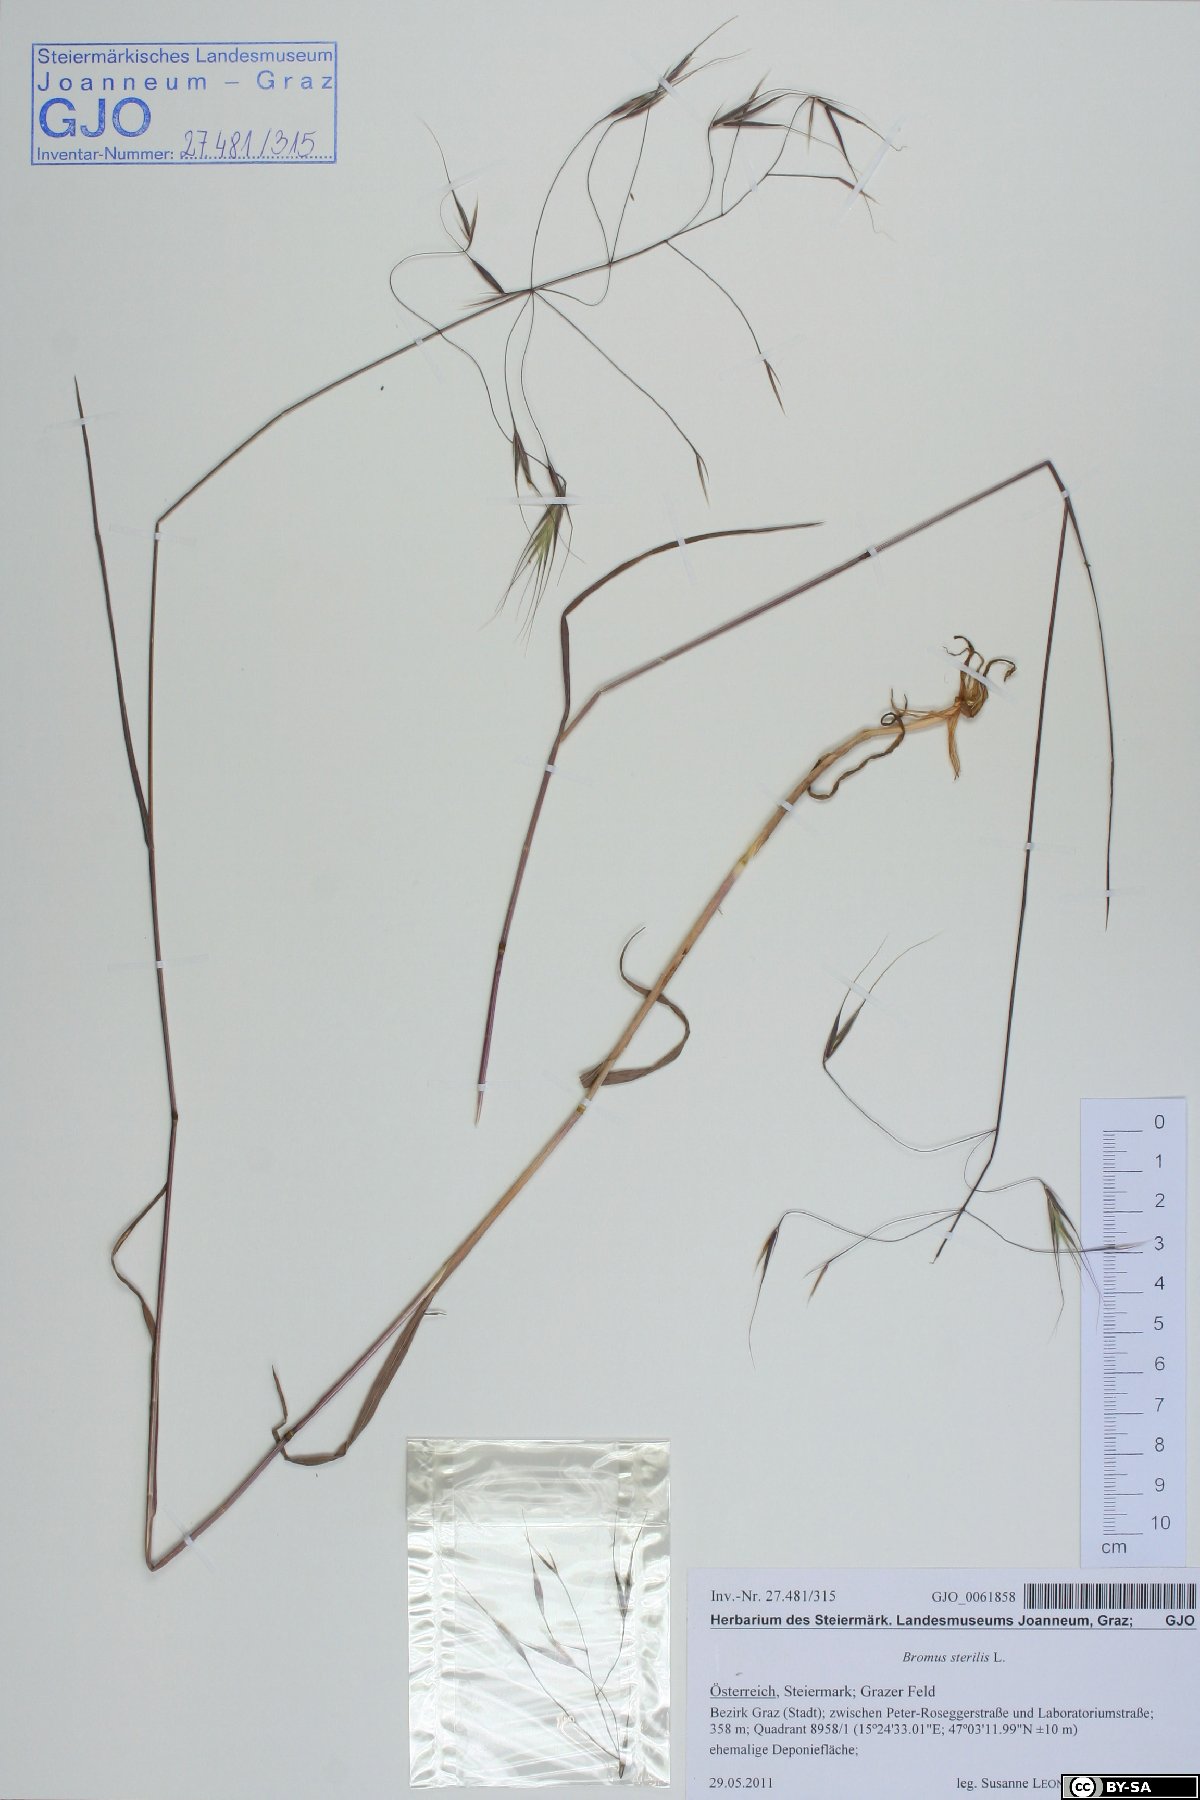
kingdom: Plantae
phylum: Tracheophyta
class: Liliopsida
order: Poales
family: Poaceae
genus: Bromus
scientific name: Bromus sterilis
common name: Poverty brome
